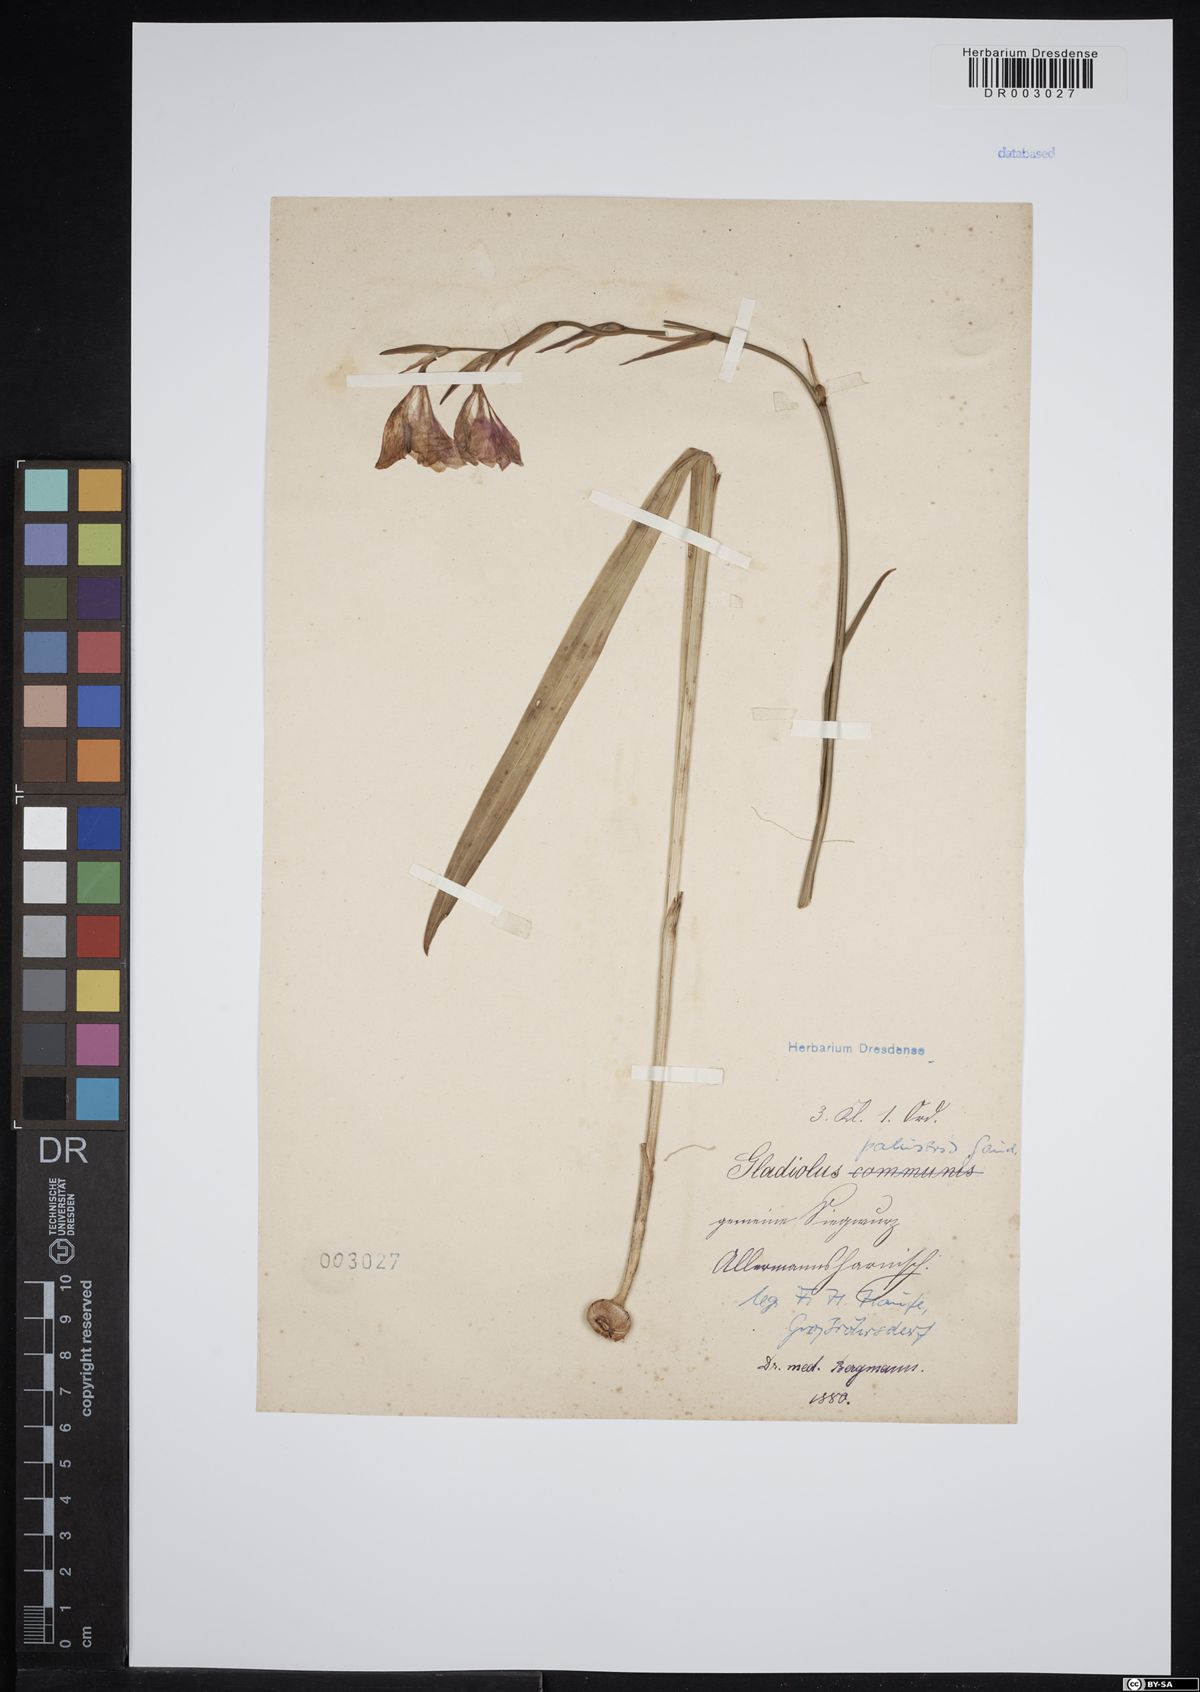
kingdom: Plantae
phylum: Tracheophyta
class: Liliopsida
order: Asparagales
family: Iridaceae
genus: Gladiolus
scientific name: Gladiolus palustris
